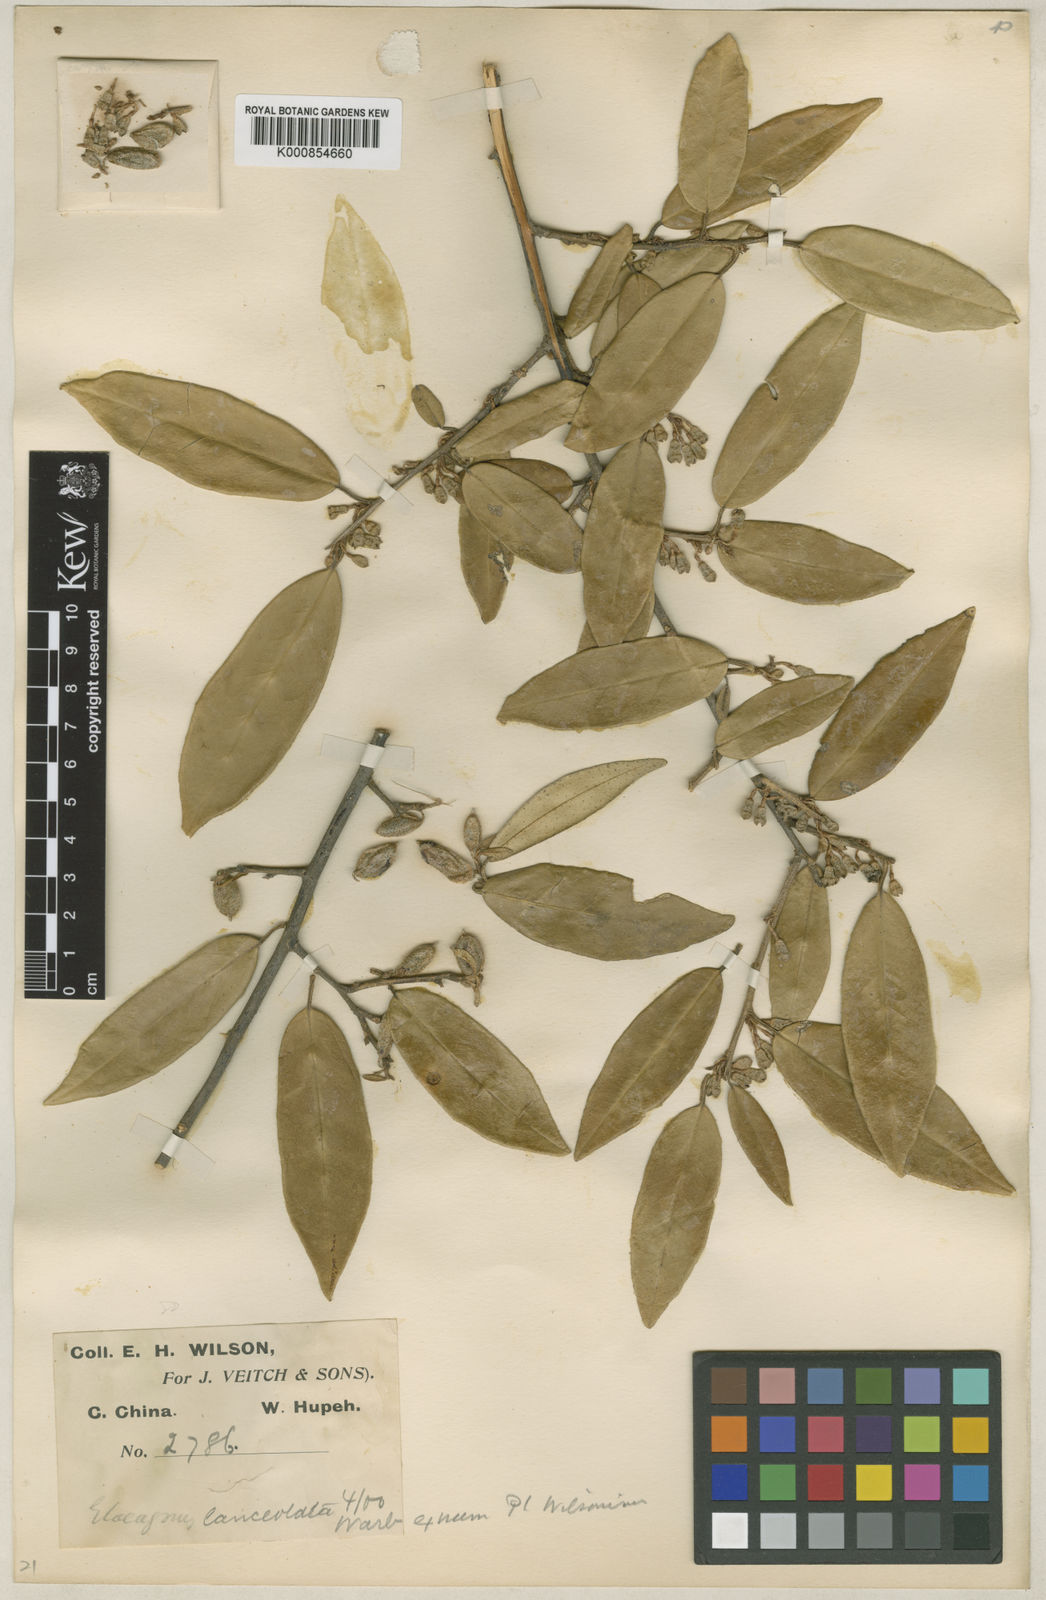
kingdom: Plantae
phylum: Tracheophyta
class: Magnoliopsida
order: Rosales
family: Elaeagnaceae
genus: Elaeagnus
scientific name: Elaeagnus lanceolata
